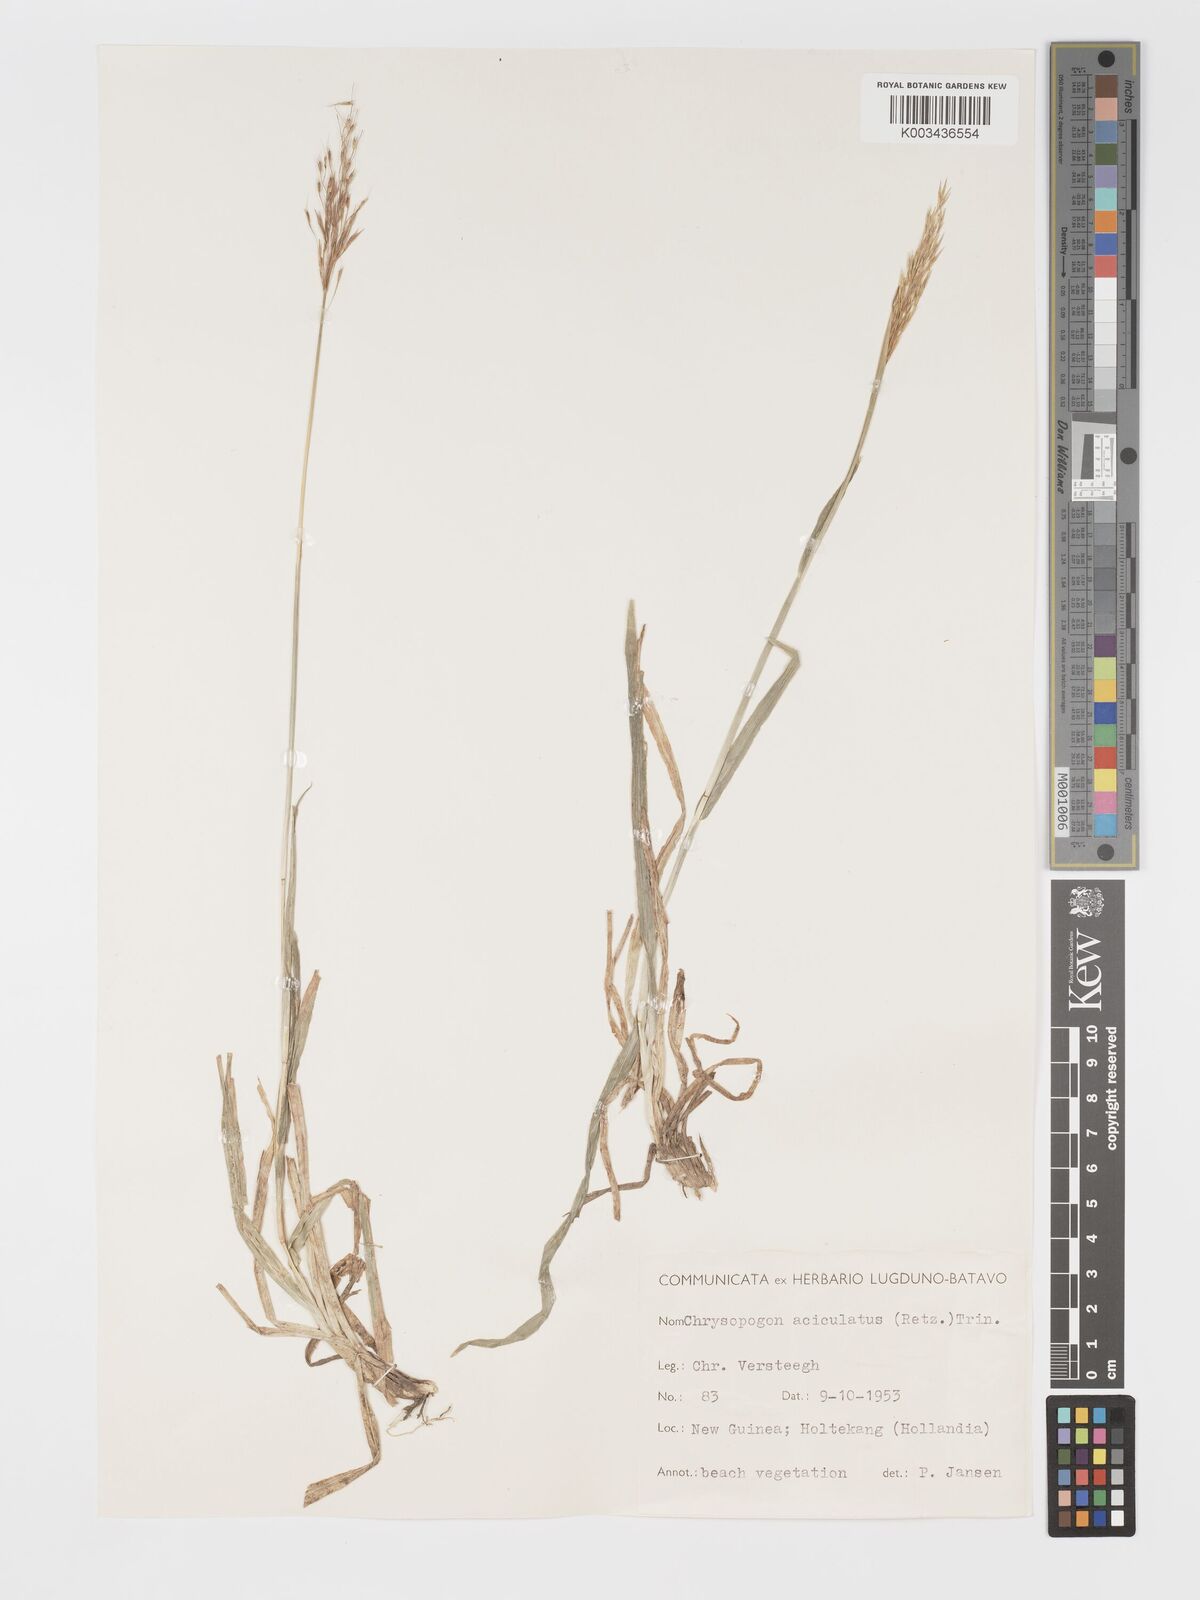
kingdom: Plantae
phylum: Tracheophyta
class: Liliopsida
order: Poales
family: Poaceae
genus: Chrysopogon
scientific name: Chrysopogon aciculatus
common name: Pilipiliula
